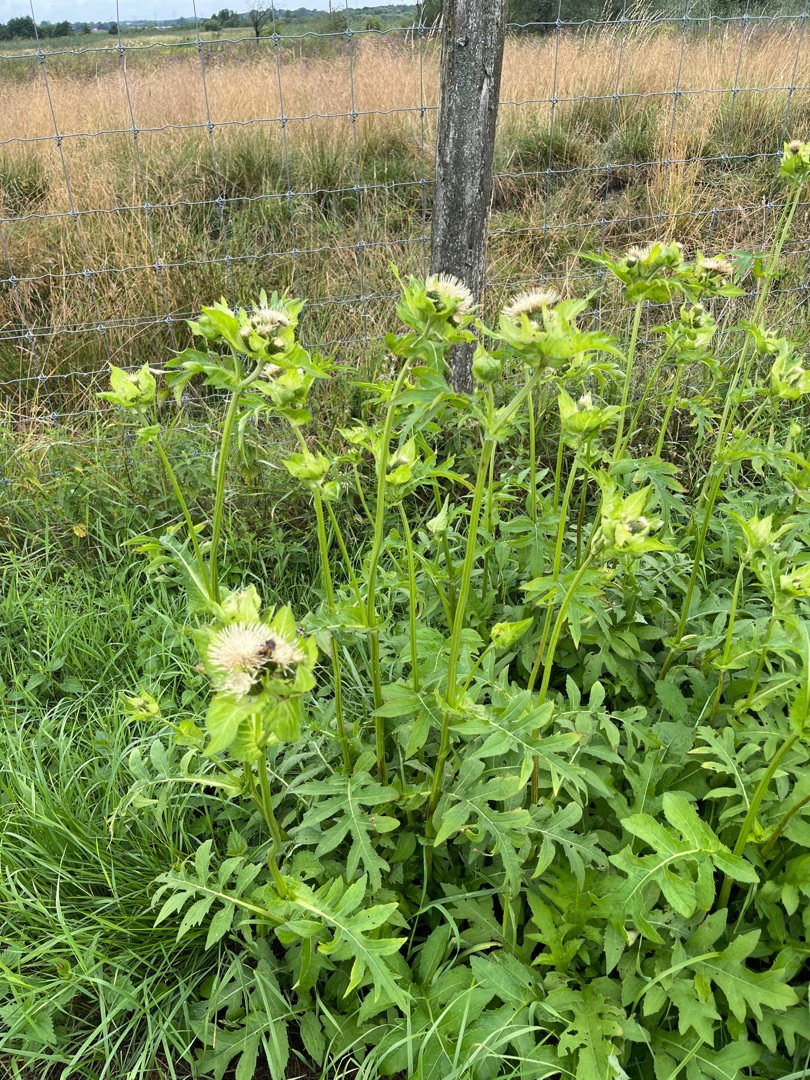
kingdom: Plantae
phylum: Tracheophyta
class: Magnoliopsida
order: Asterales
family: Asteraceae
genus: Cirsium
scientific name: Cirsium oleraceum
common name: Kål-tidsel
